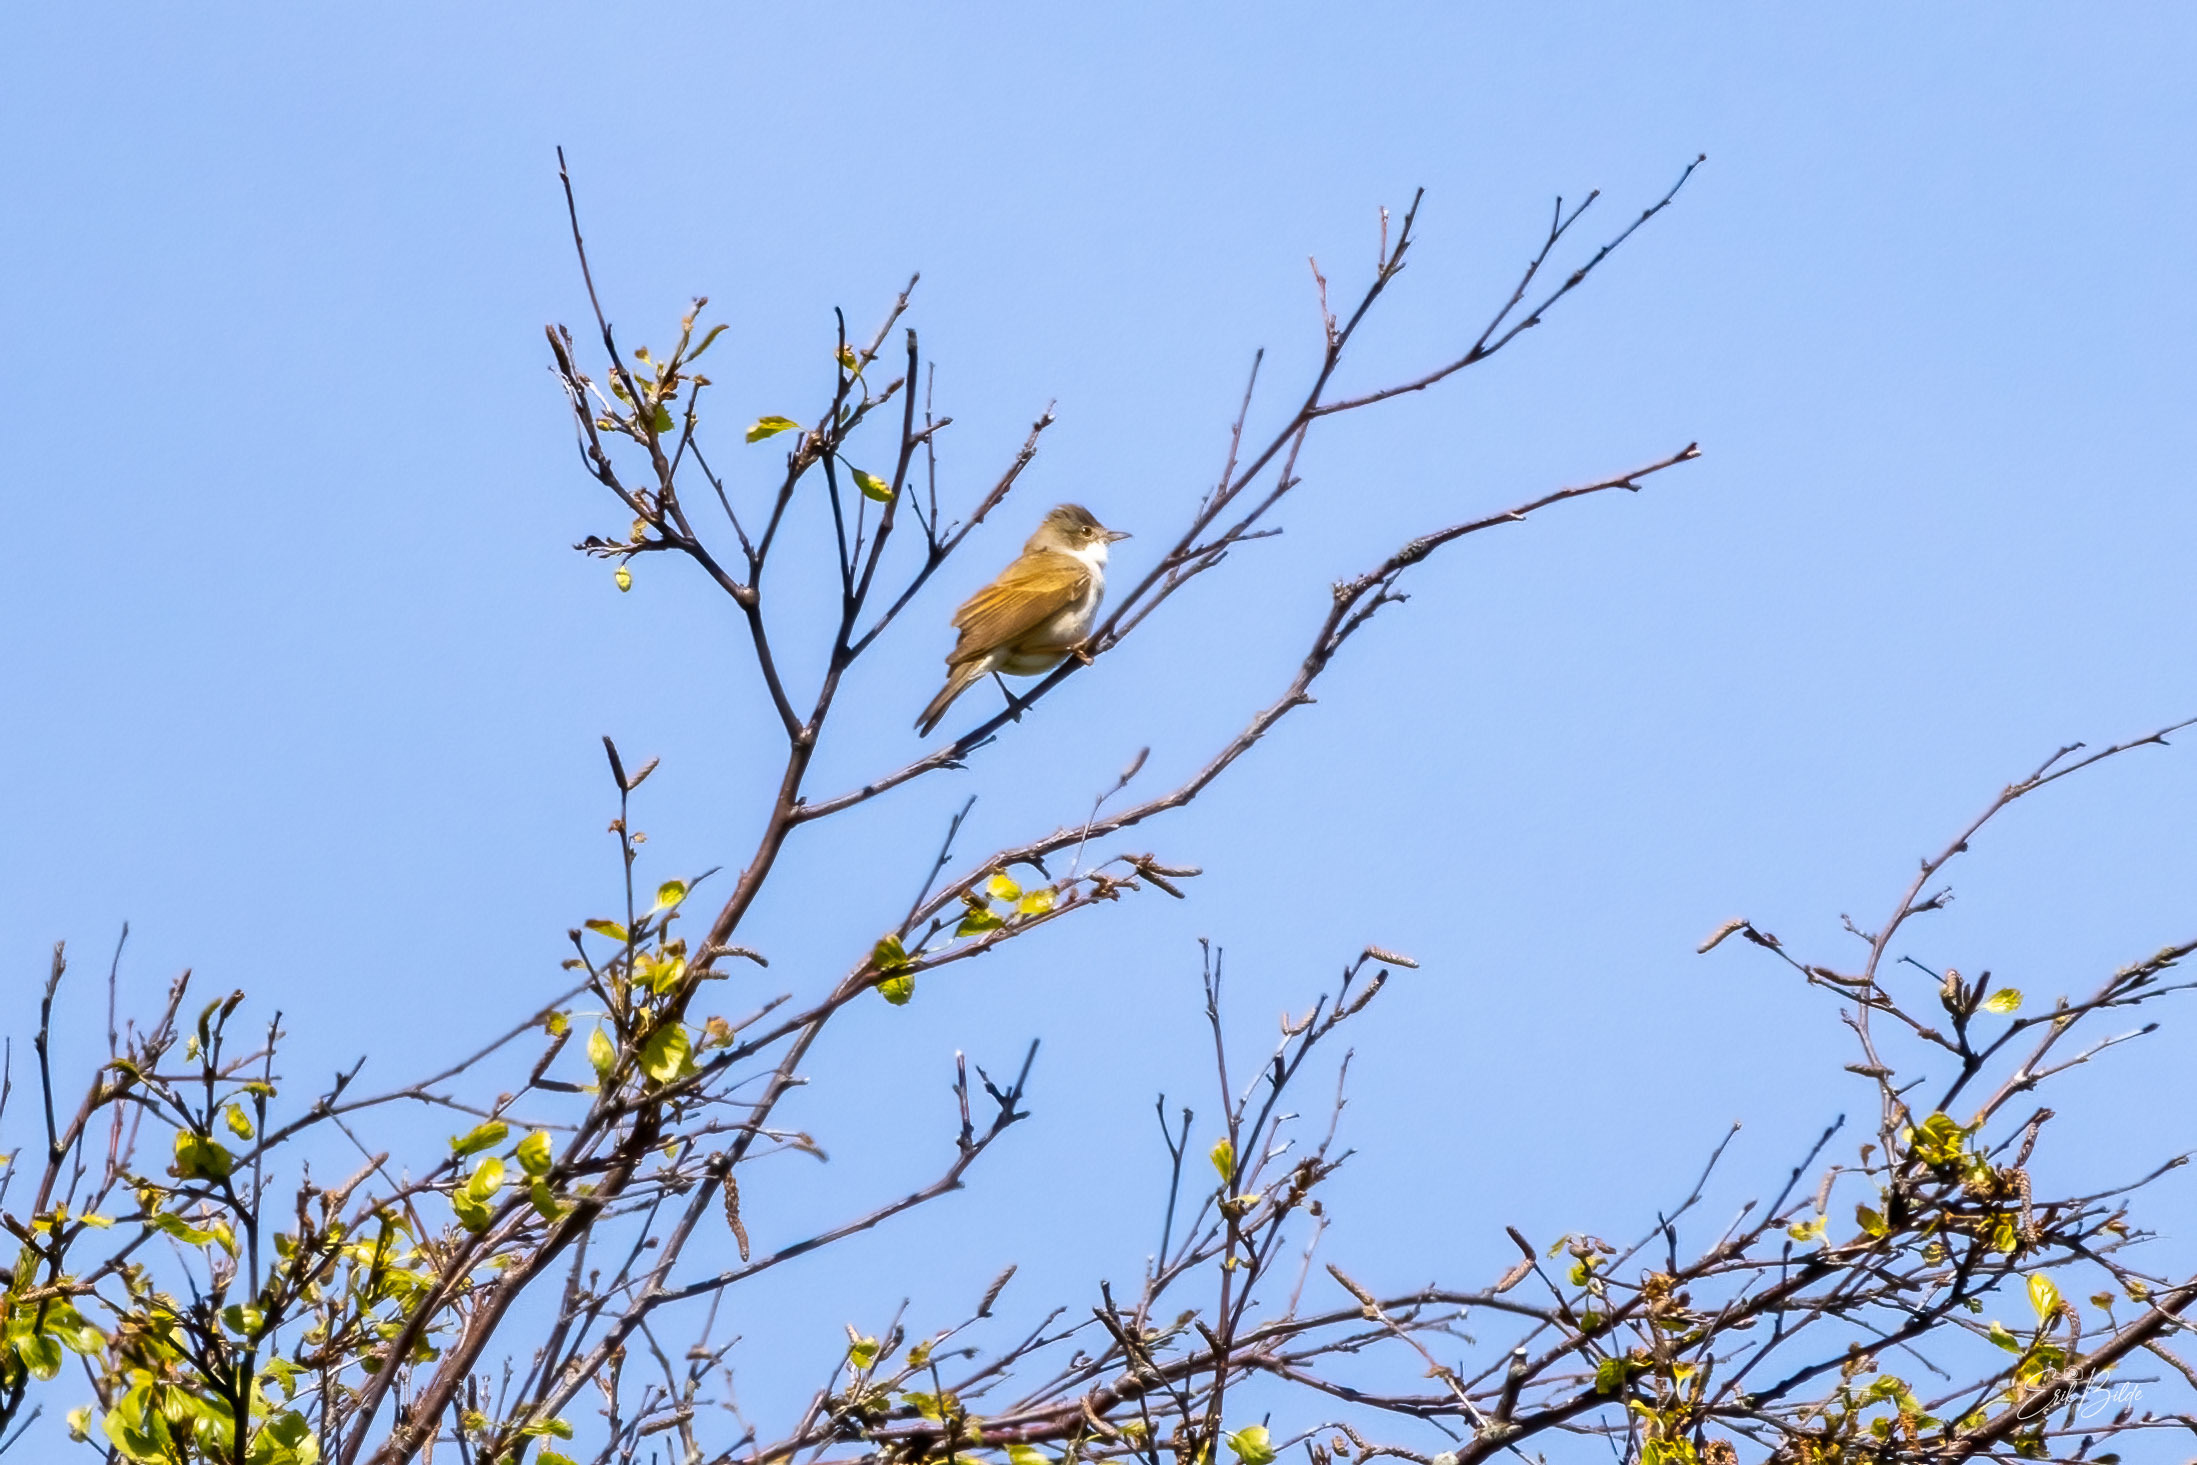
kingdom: Animalia
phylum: Chordata
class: Aves
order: Passeriformes
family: Sylviidae
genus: Sylvia
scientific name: Sylvia communis
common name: Tornsanger
